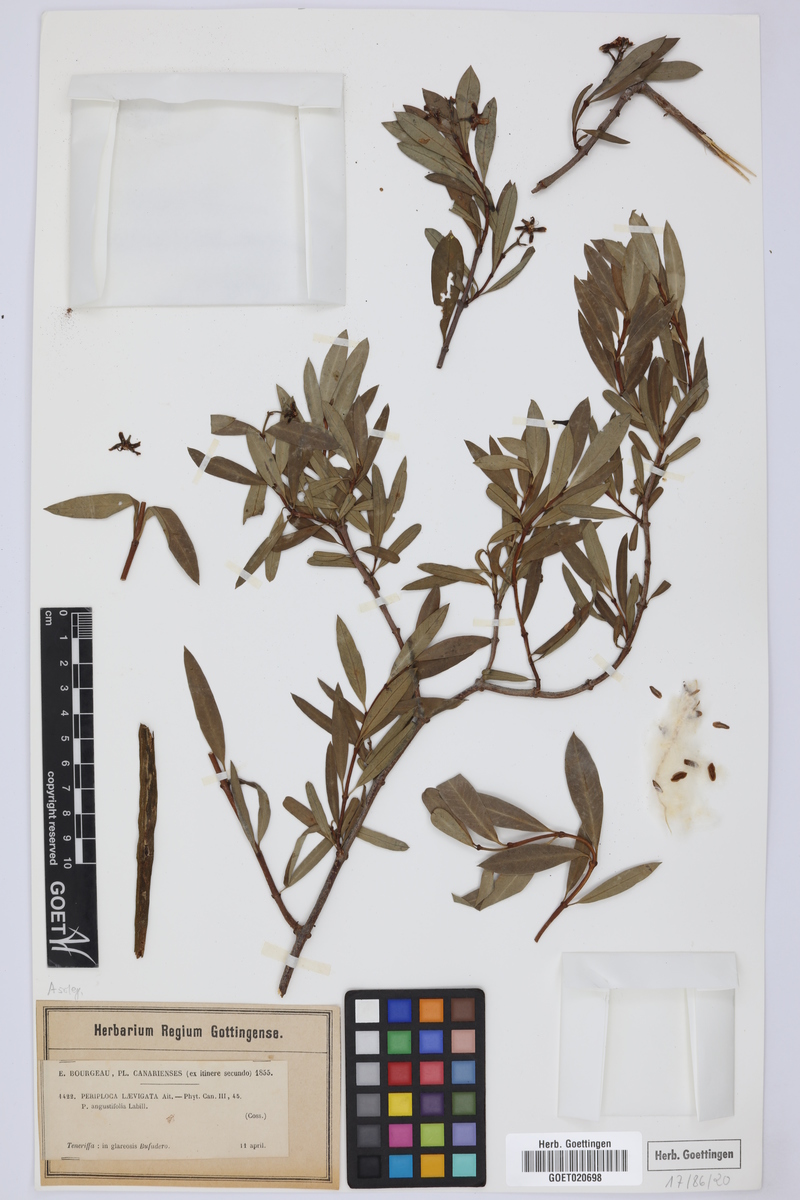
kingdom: Plantae
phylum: Tracheophyta
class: Magnoliopsida
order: Gentianales
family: Apocynaceae
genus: Periploca
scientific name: Periploca laevigata
